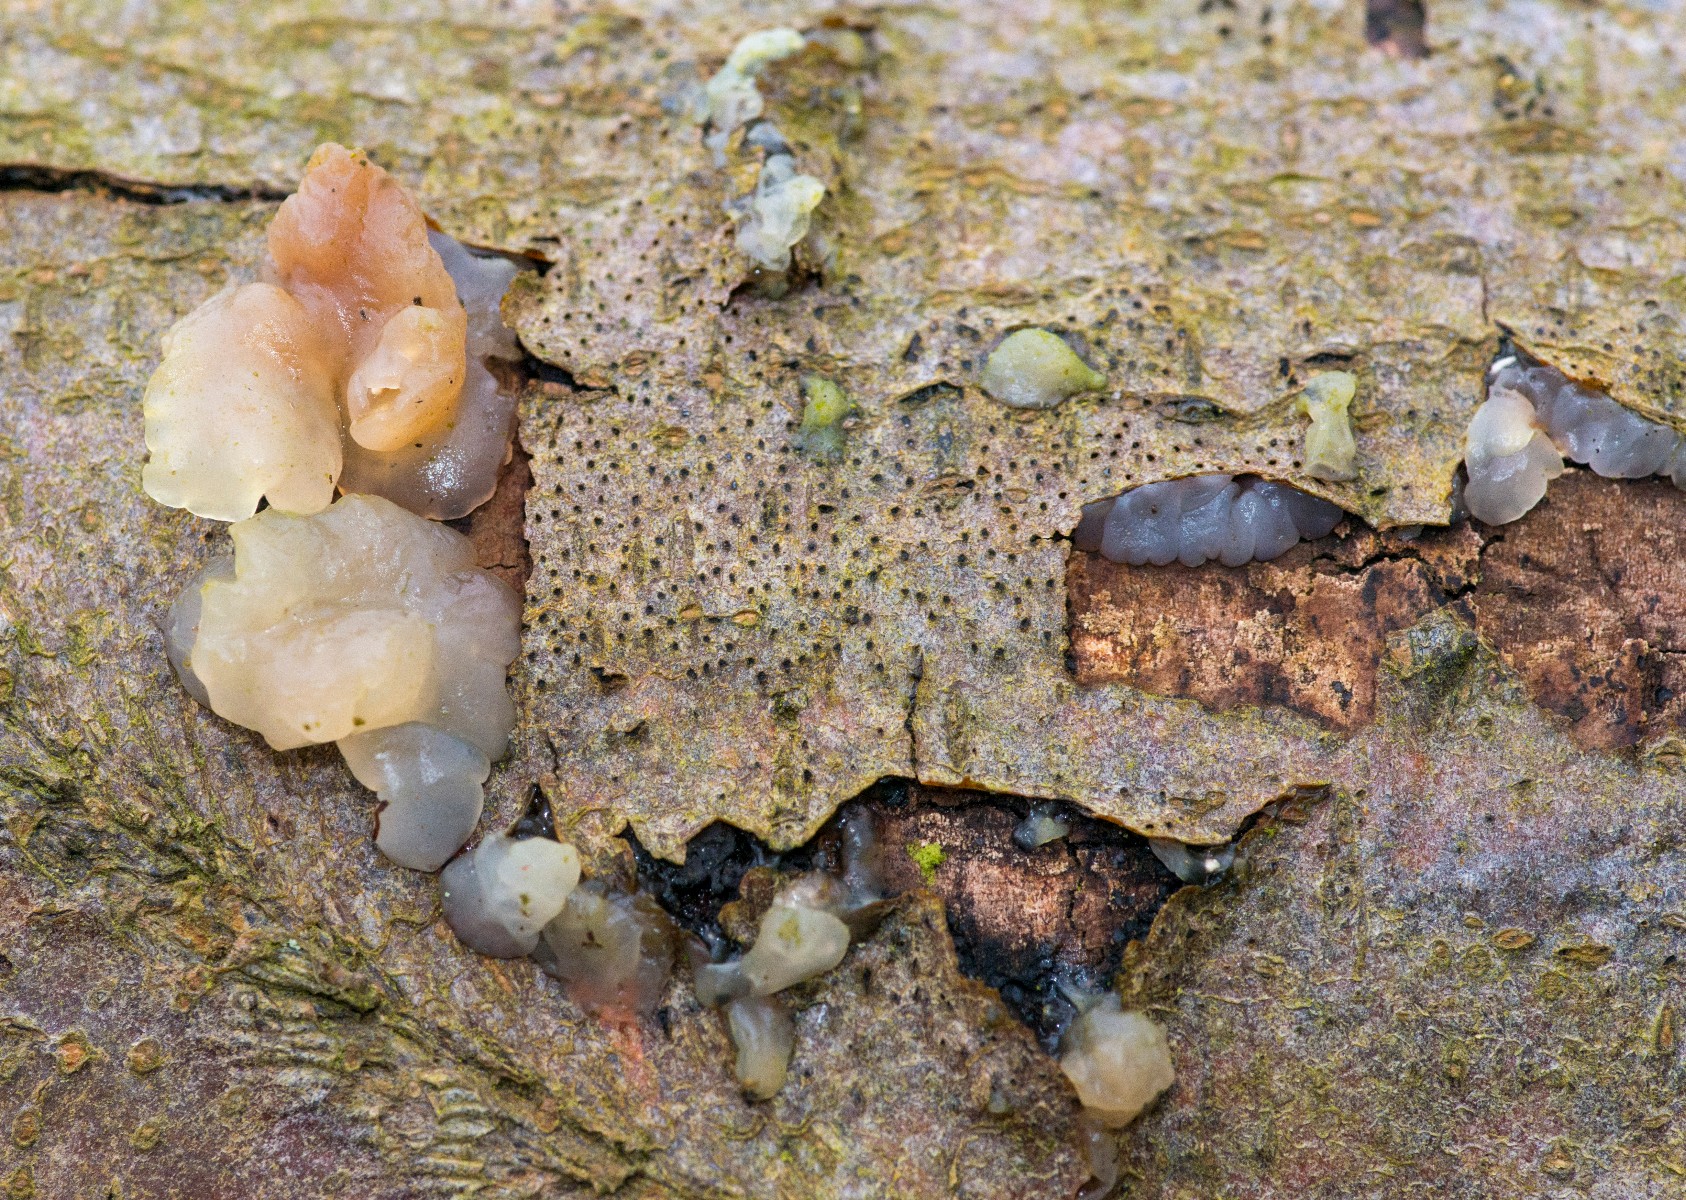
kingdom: Fungi
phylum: Basidiomycota
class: Agaricomycetes
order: Auriculariales
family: Hyaloriaceae
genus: Myxarium
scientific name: Myxarium nucleatum
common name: klar bævretop
